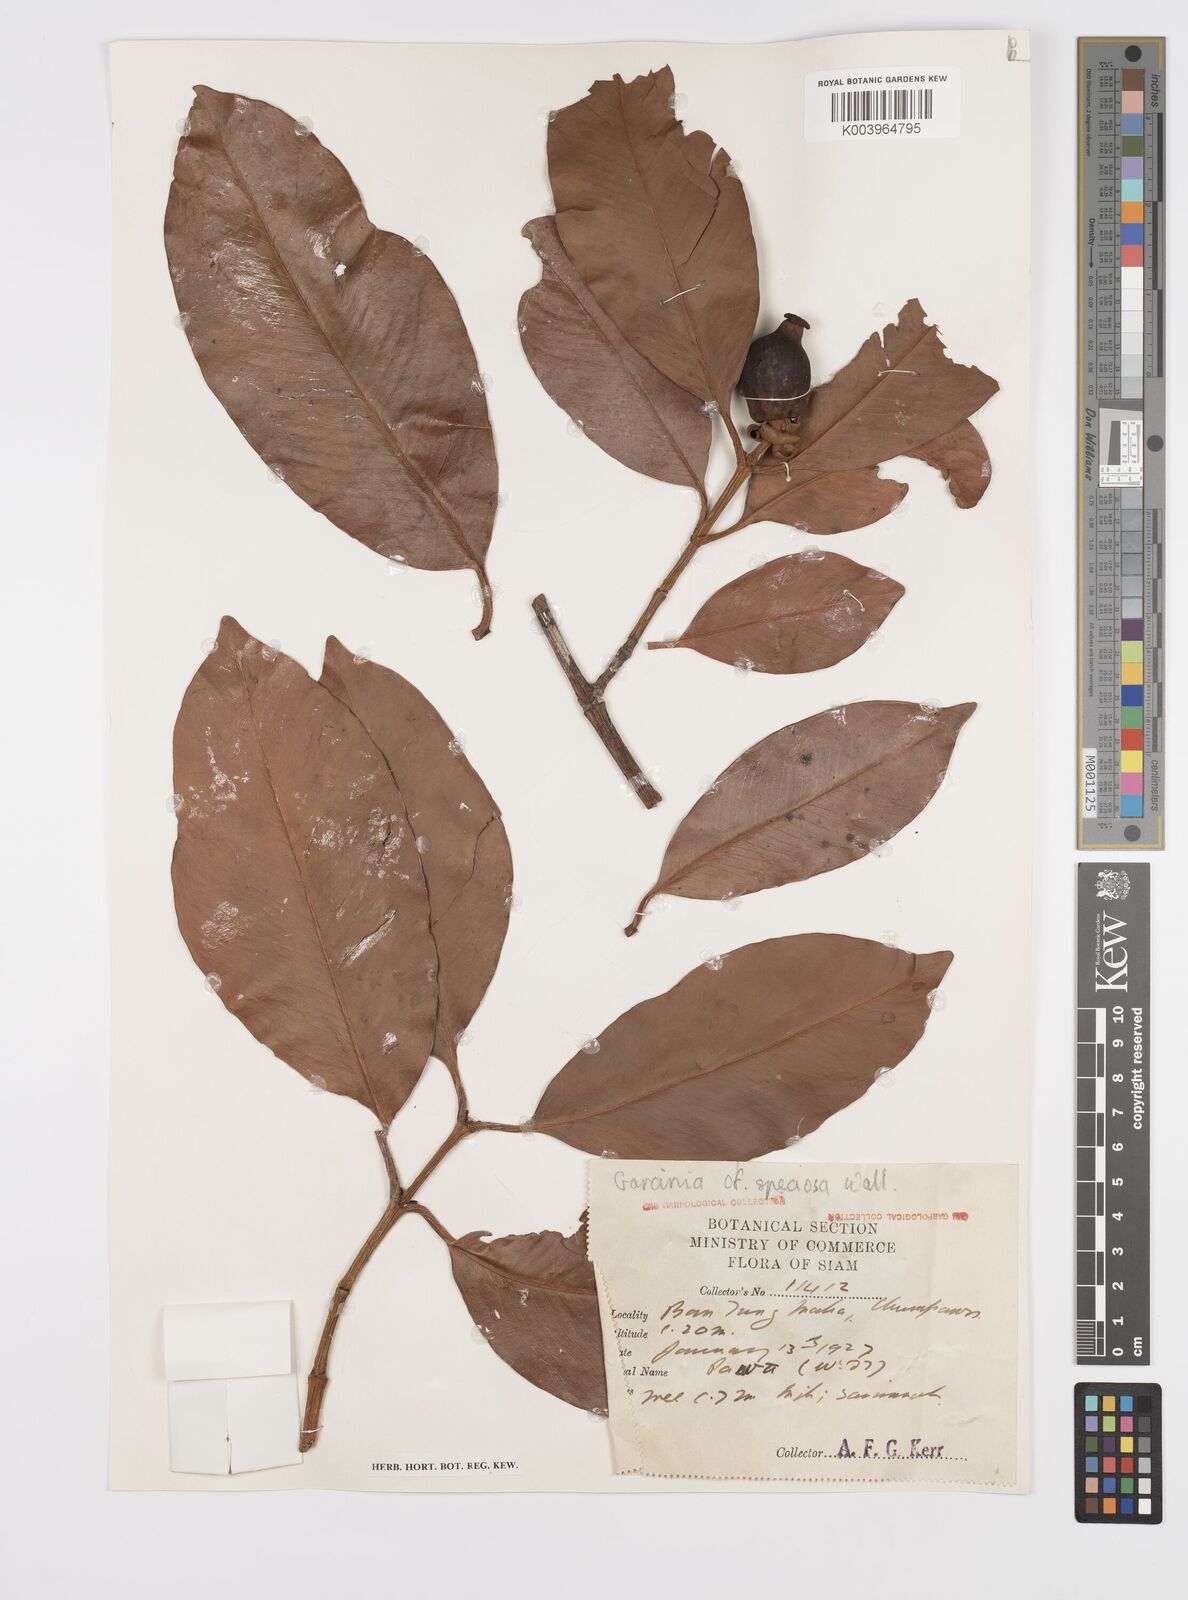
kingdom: Plantae
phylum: Tracheophyta
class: Magnoliopsida
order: Malpighiales
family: Clusiaceae
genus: Garcinia
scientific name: Garcinia celebica
